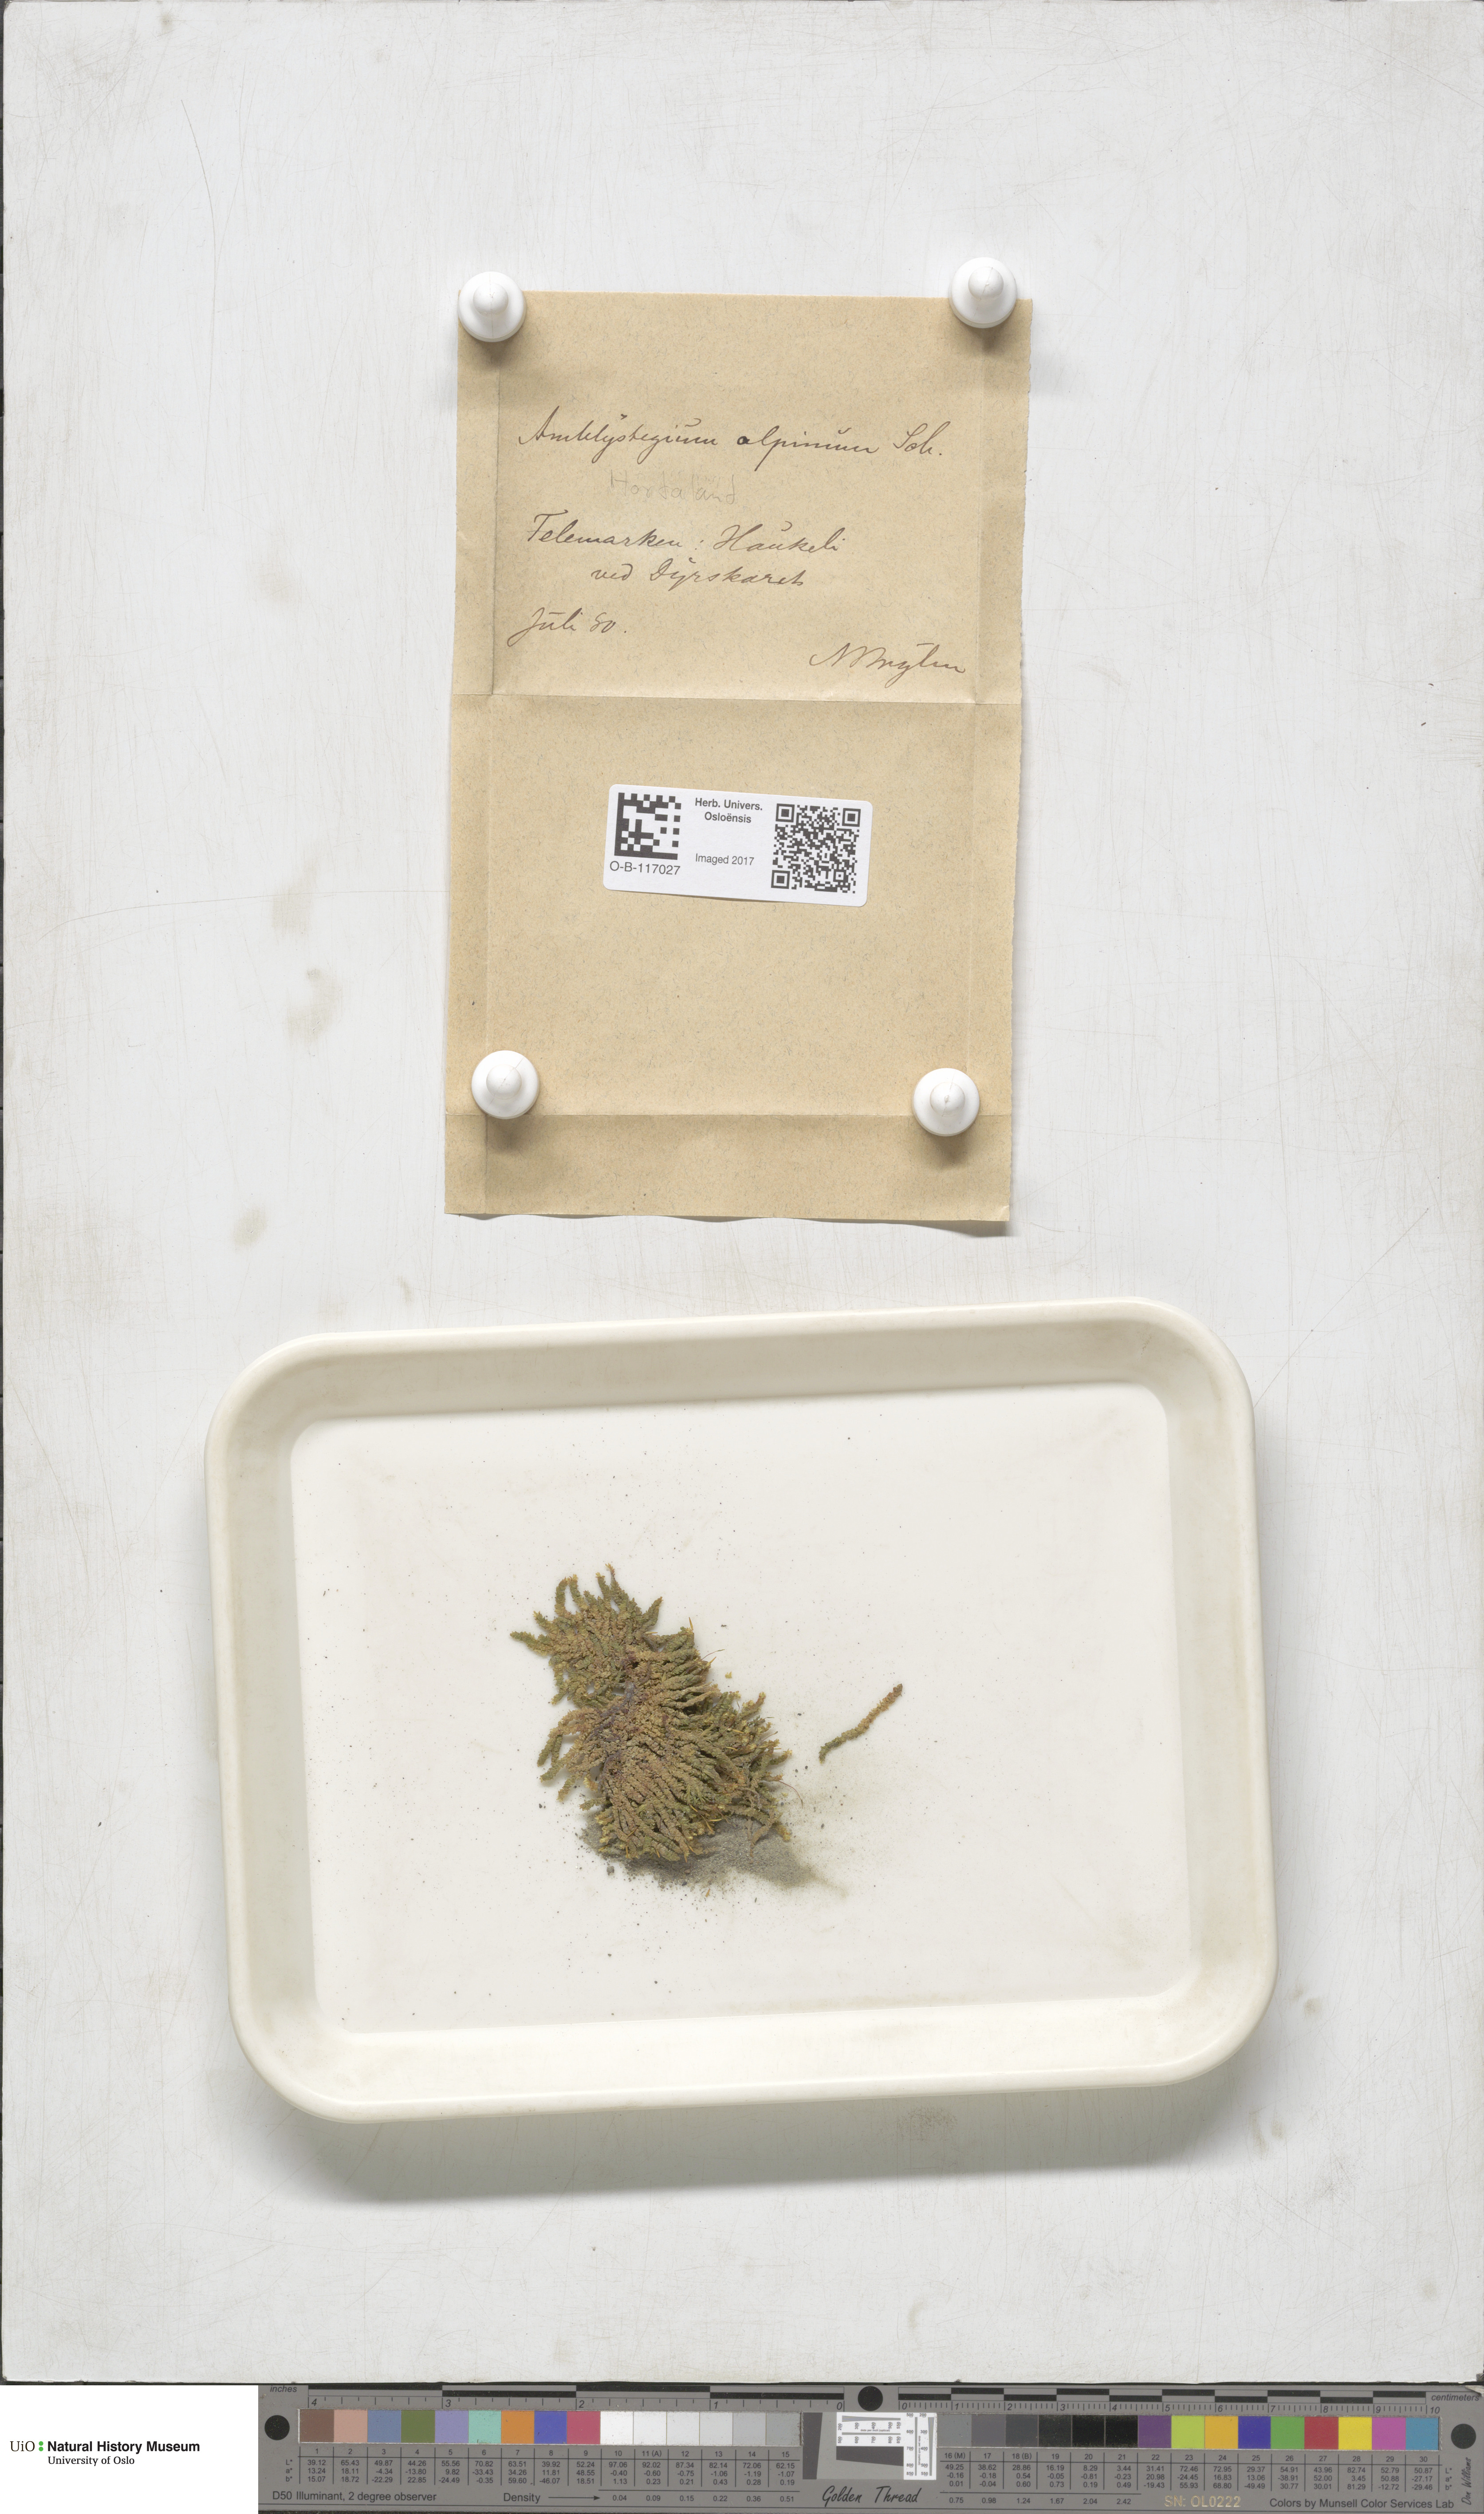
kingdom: Plantae
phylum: Bryophyta
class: Bryopsida
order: Hypnales
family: Amblystegiaceae
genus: Platyhypnum
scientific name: Platyhypnum alpinum
